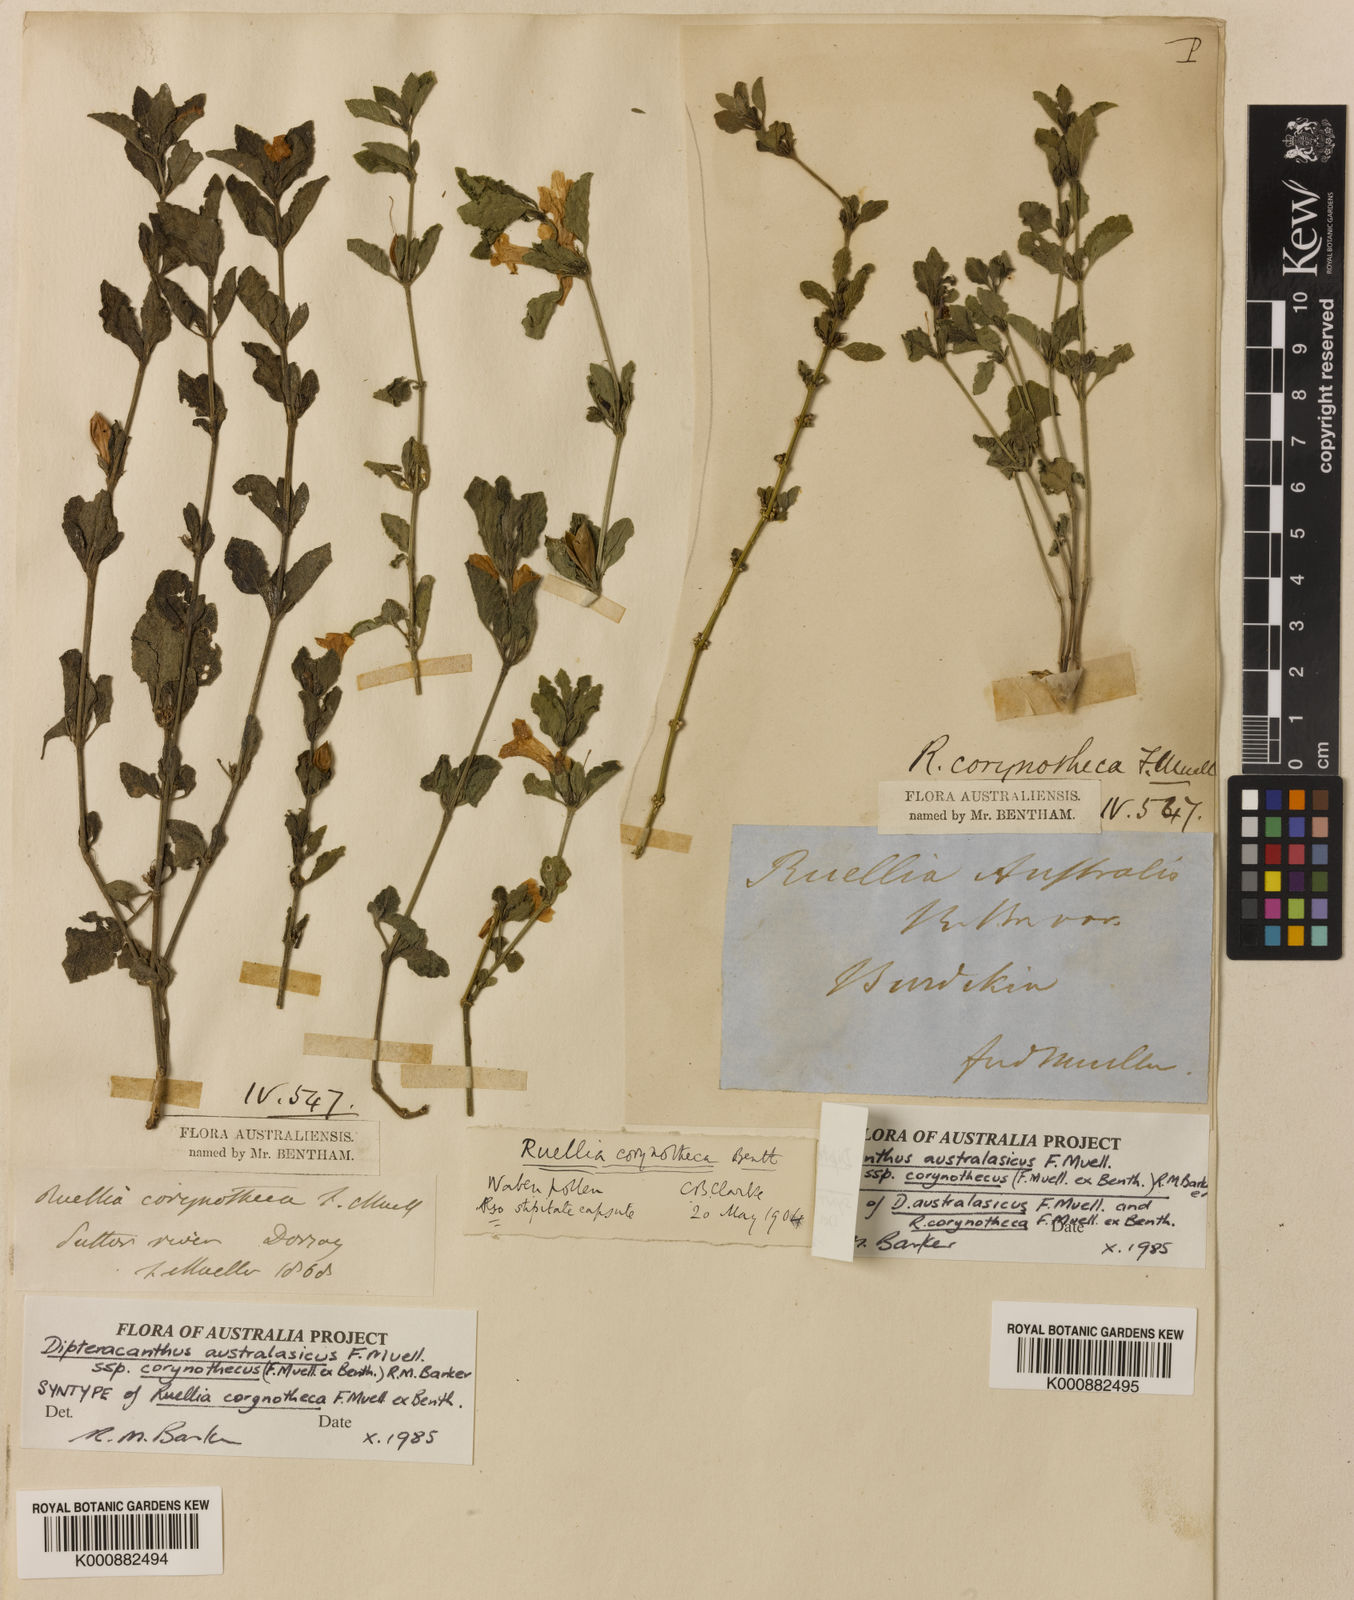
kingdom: Plantae
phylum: Tracheophyta
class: Magnoliopsida
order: Lamiales
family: Acanthaceae
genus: Ruellia
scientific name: Ruellia corynotheca
